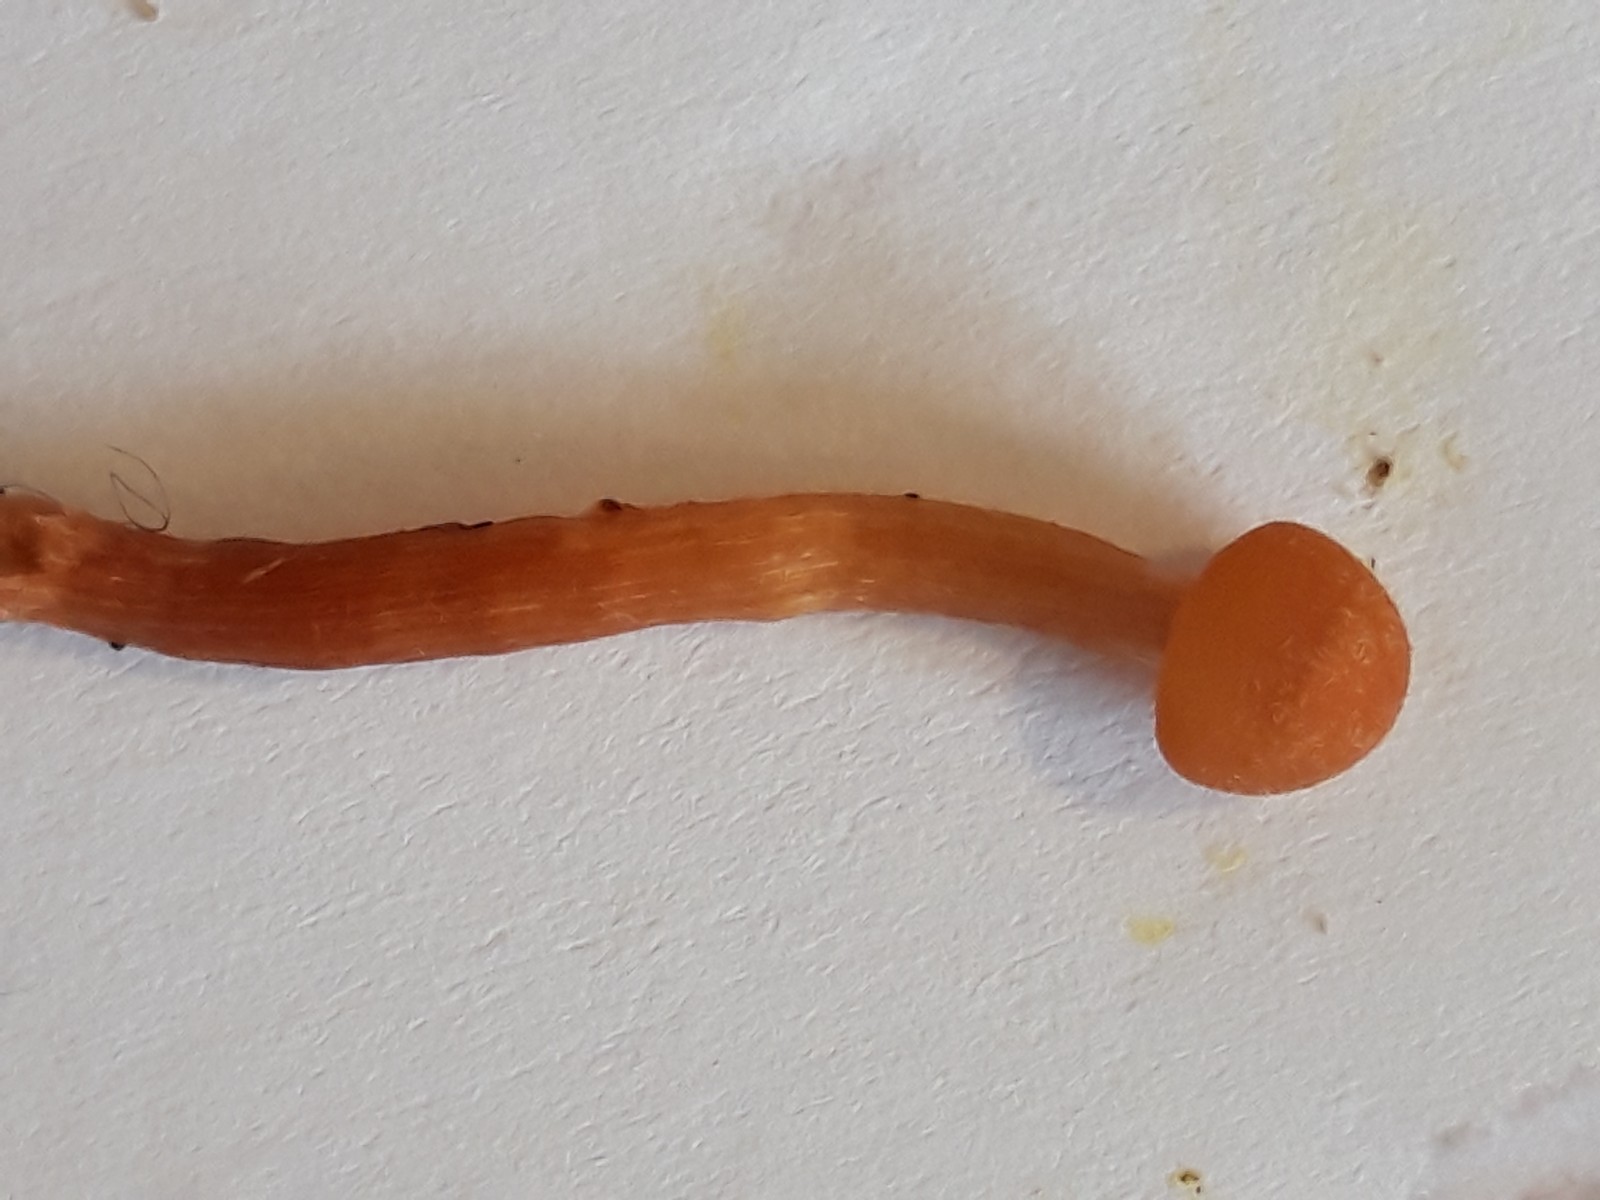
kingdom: Fungi
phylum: Basidiomycota
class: Agaricomycetes
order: Agaricales
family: Hydnangiaceae
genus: Laccaria
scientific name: Laccaria laccata
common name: rød ametysthat
